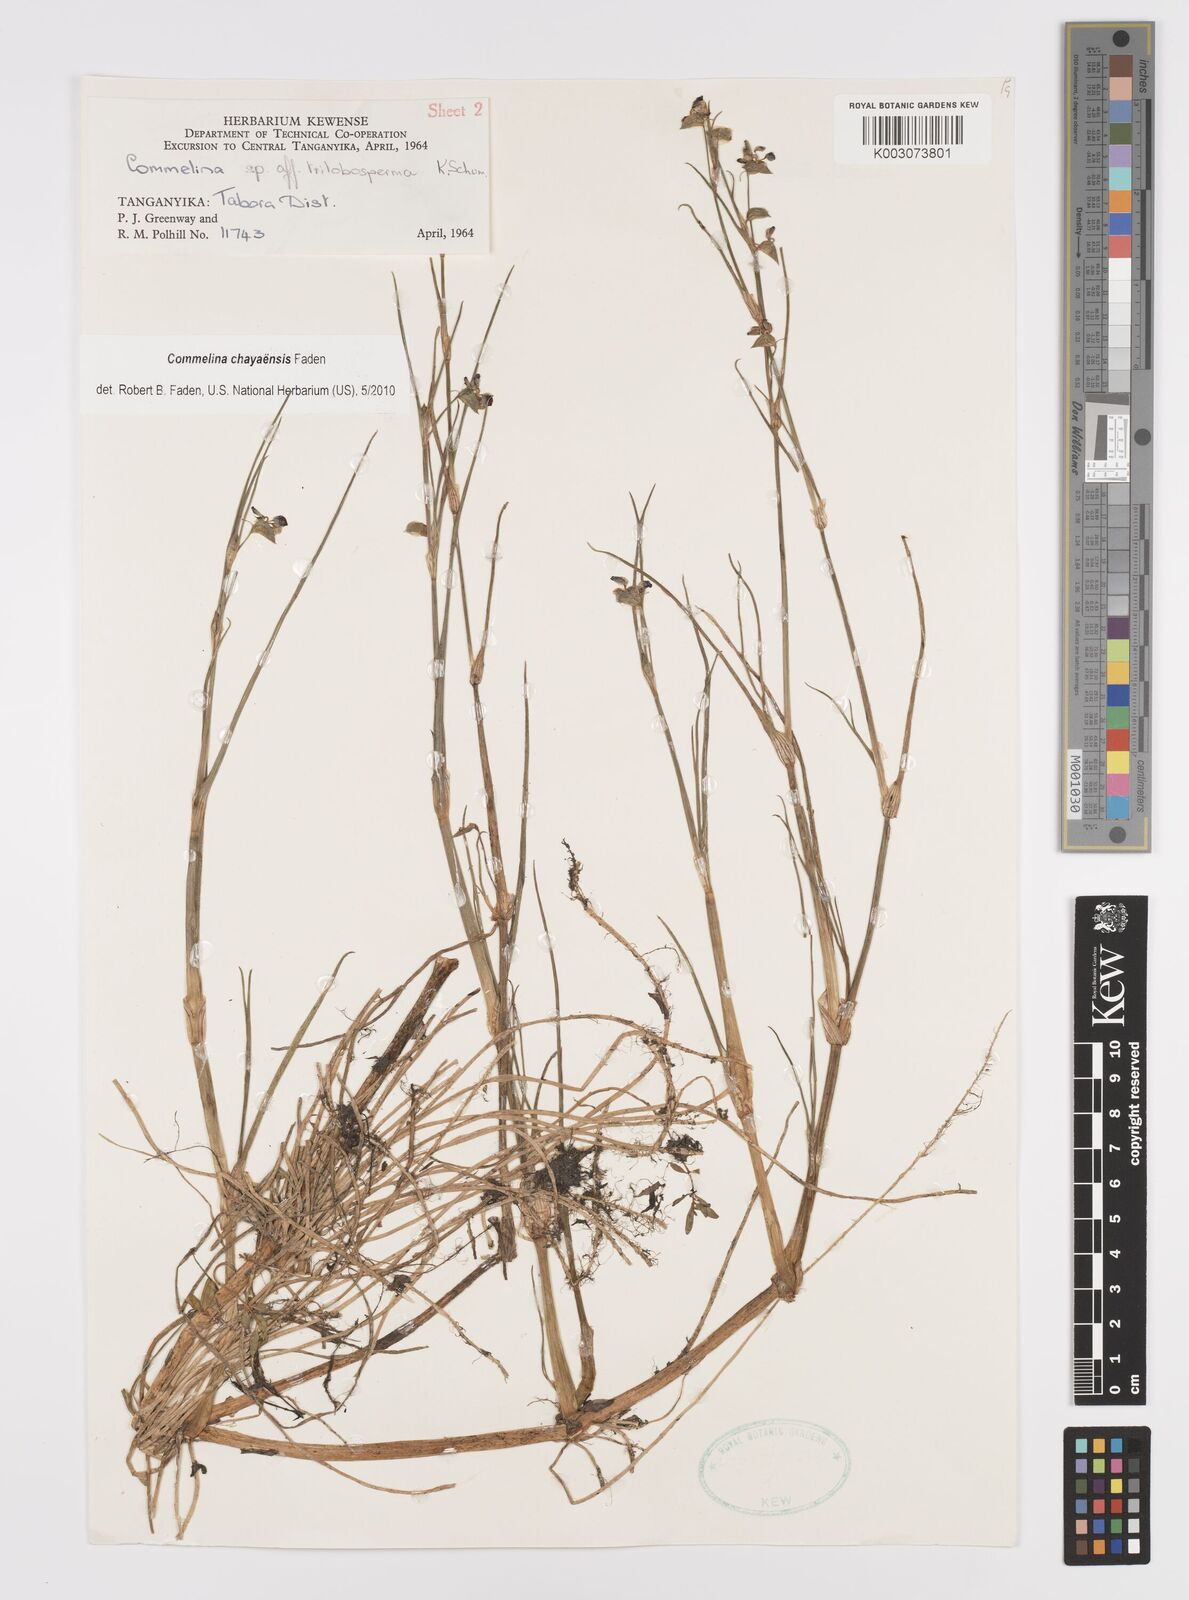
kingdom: Plantae
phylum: Tracheophyta
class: Liliopsida
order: Commelinales
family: Commelinaceae
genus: Commelina
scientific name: Commelina chayaensis
